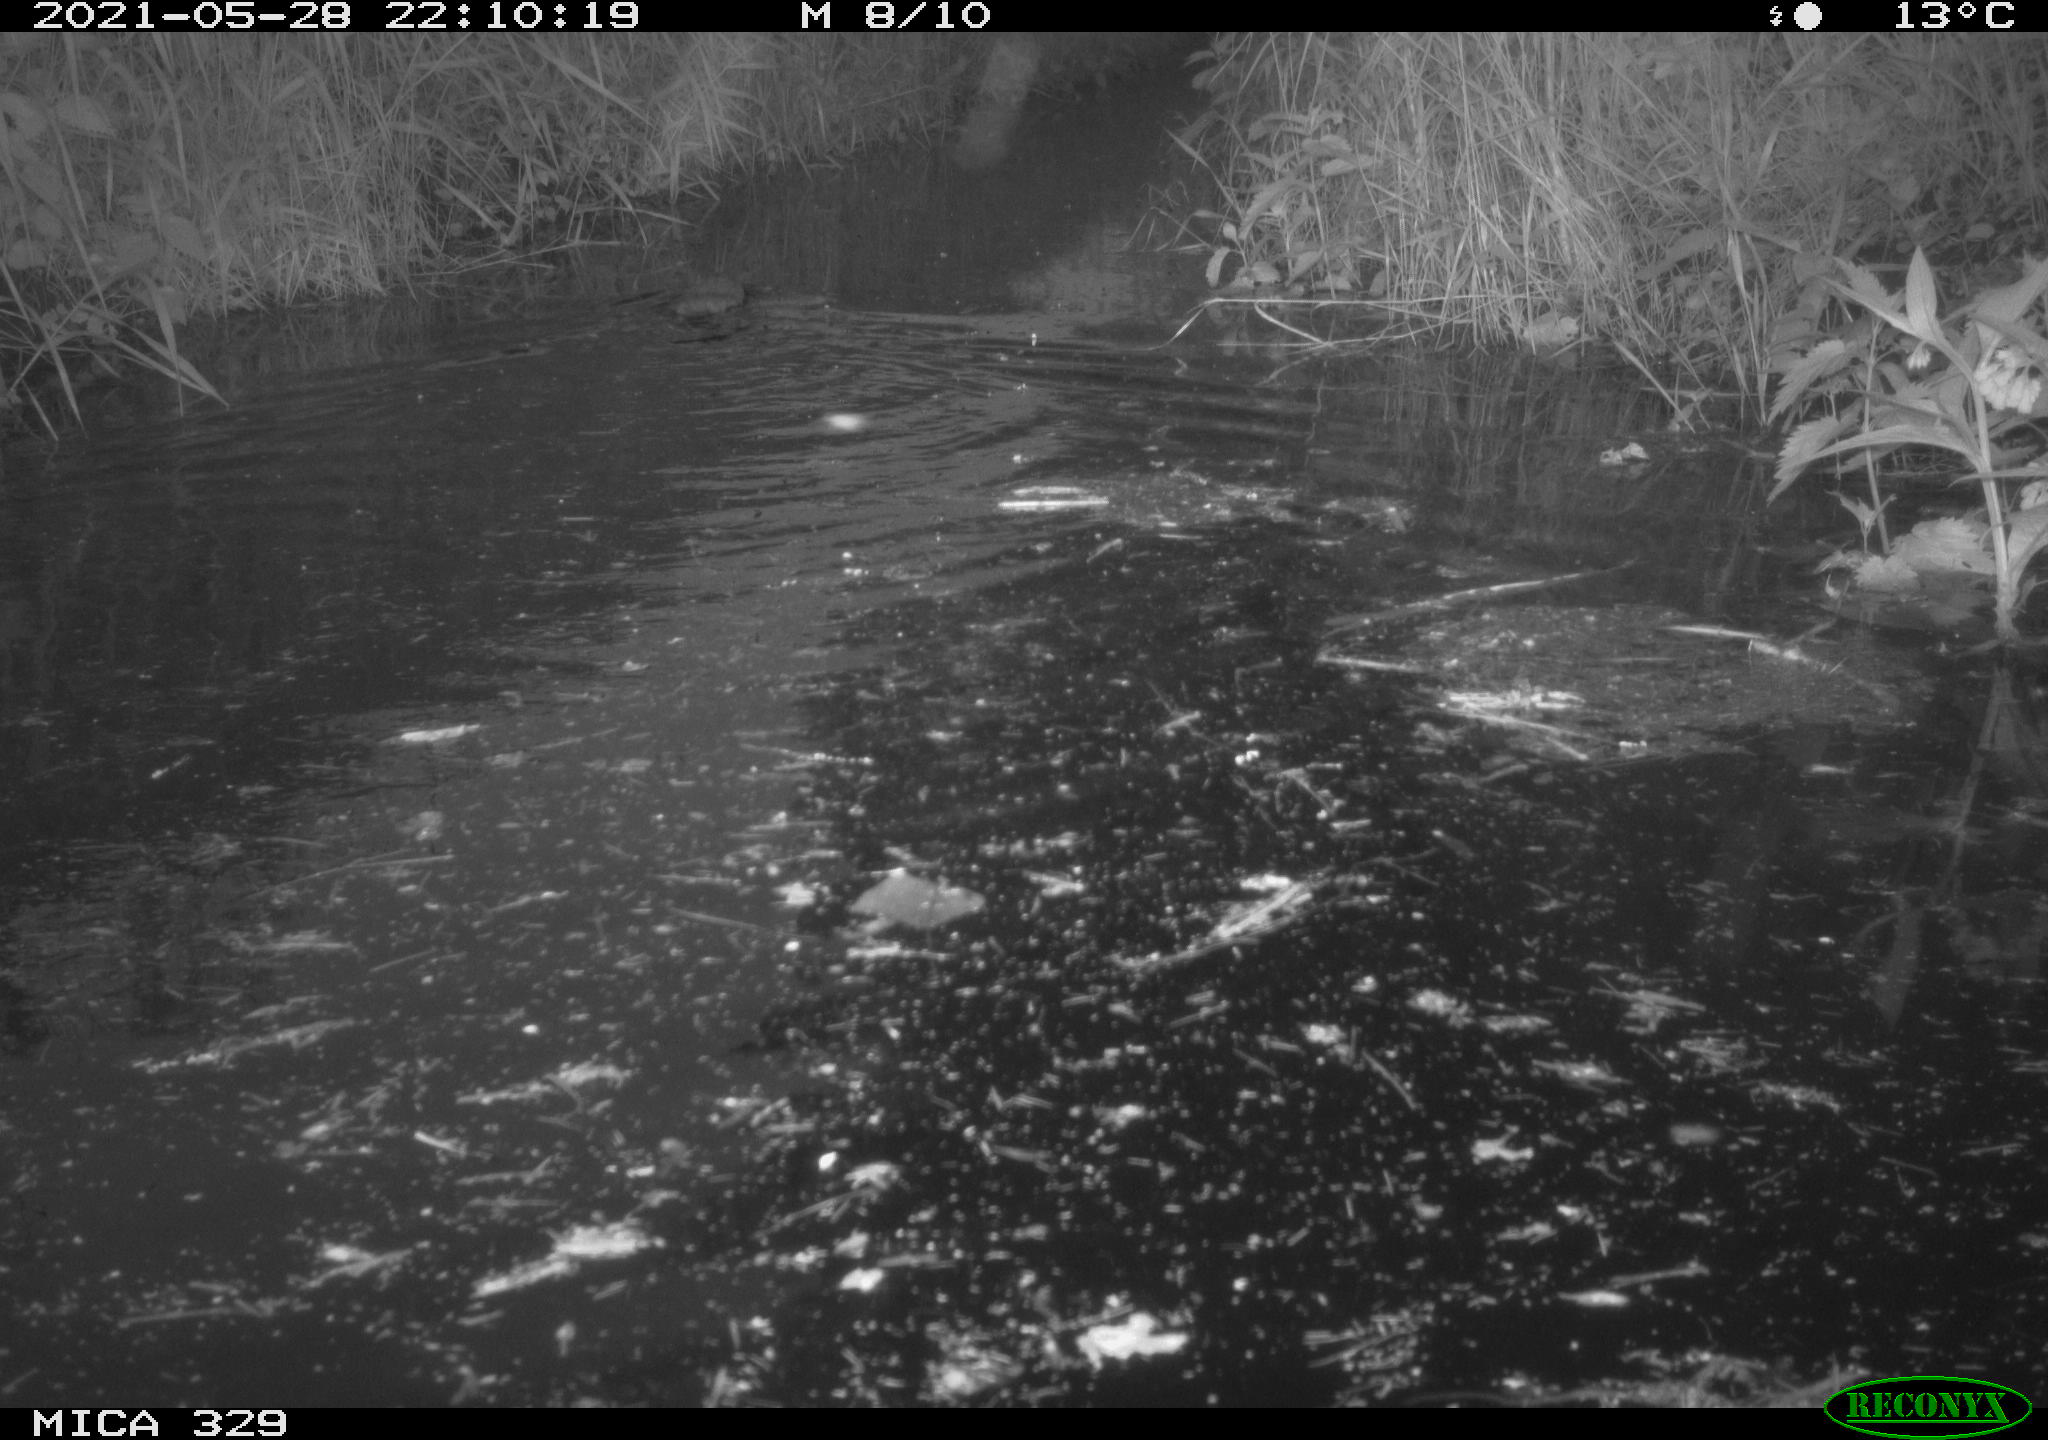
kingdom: Animalia
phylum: Chordata
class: Mammalia
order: Rodentia
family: Cricetidae
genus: Ondatra
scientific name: Ondatra zibethicus
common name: Muskrat
